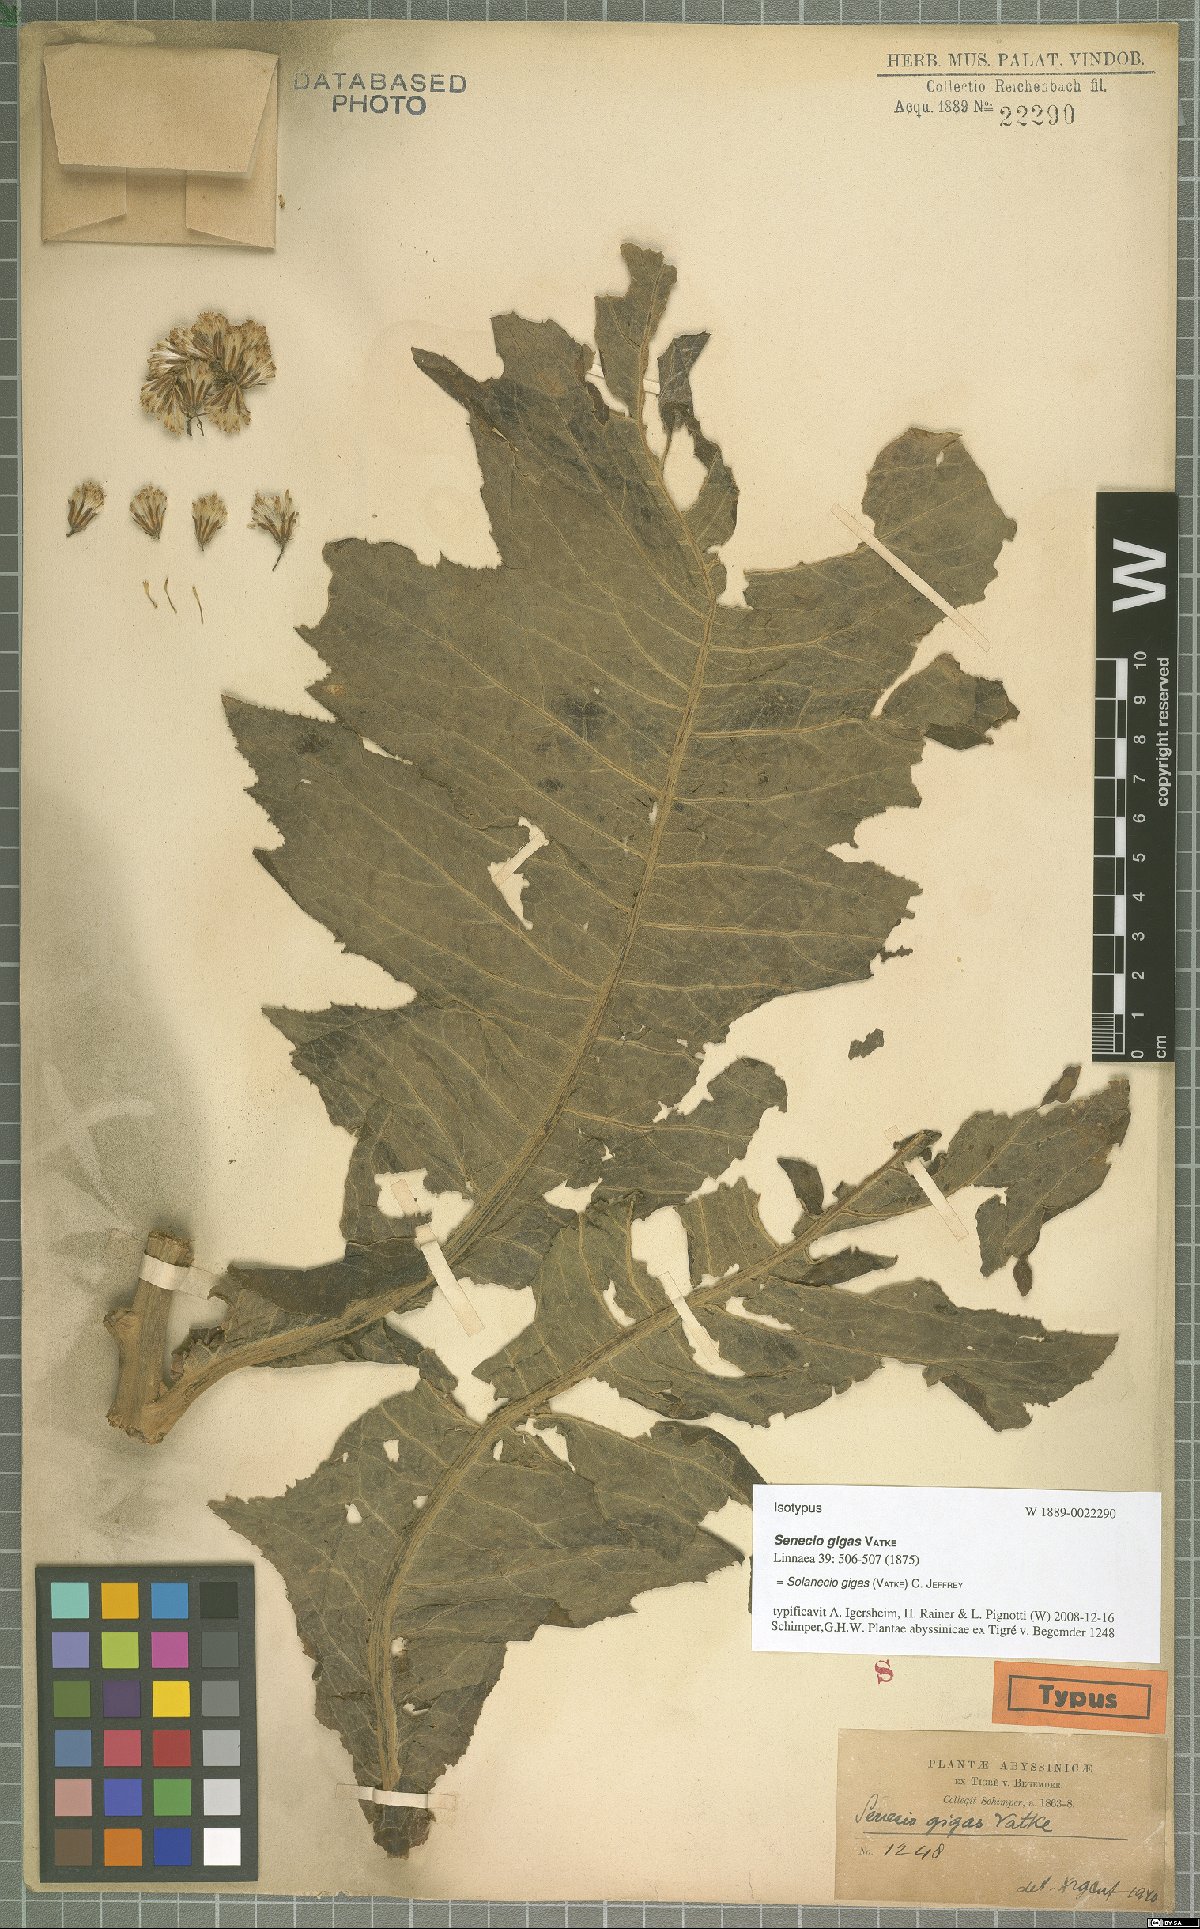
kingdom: Plantae
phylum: Tracheophyta
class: Magnoliopsida
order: Asterales
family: Asteraceae
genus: Solanecio
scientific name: Solanecio gigas
